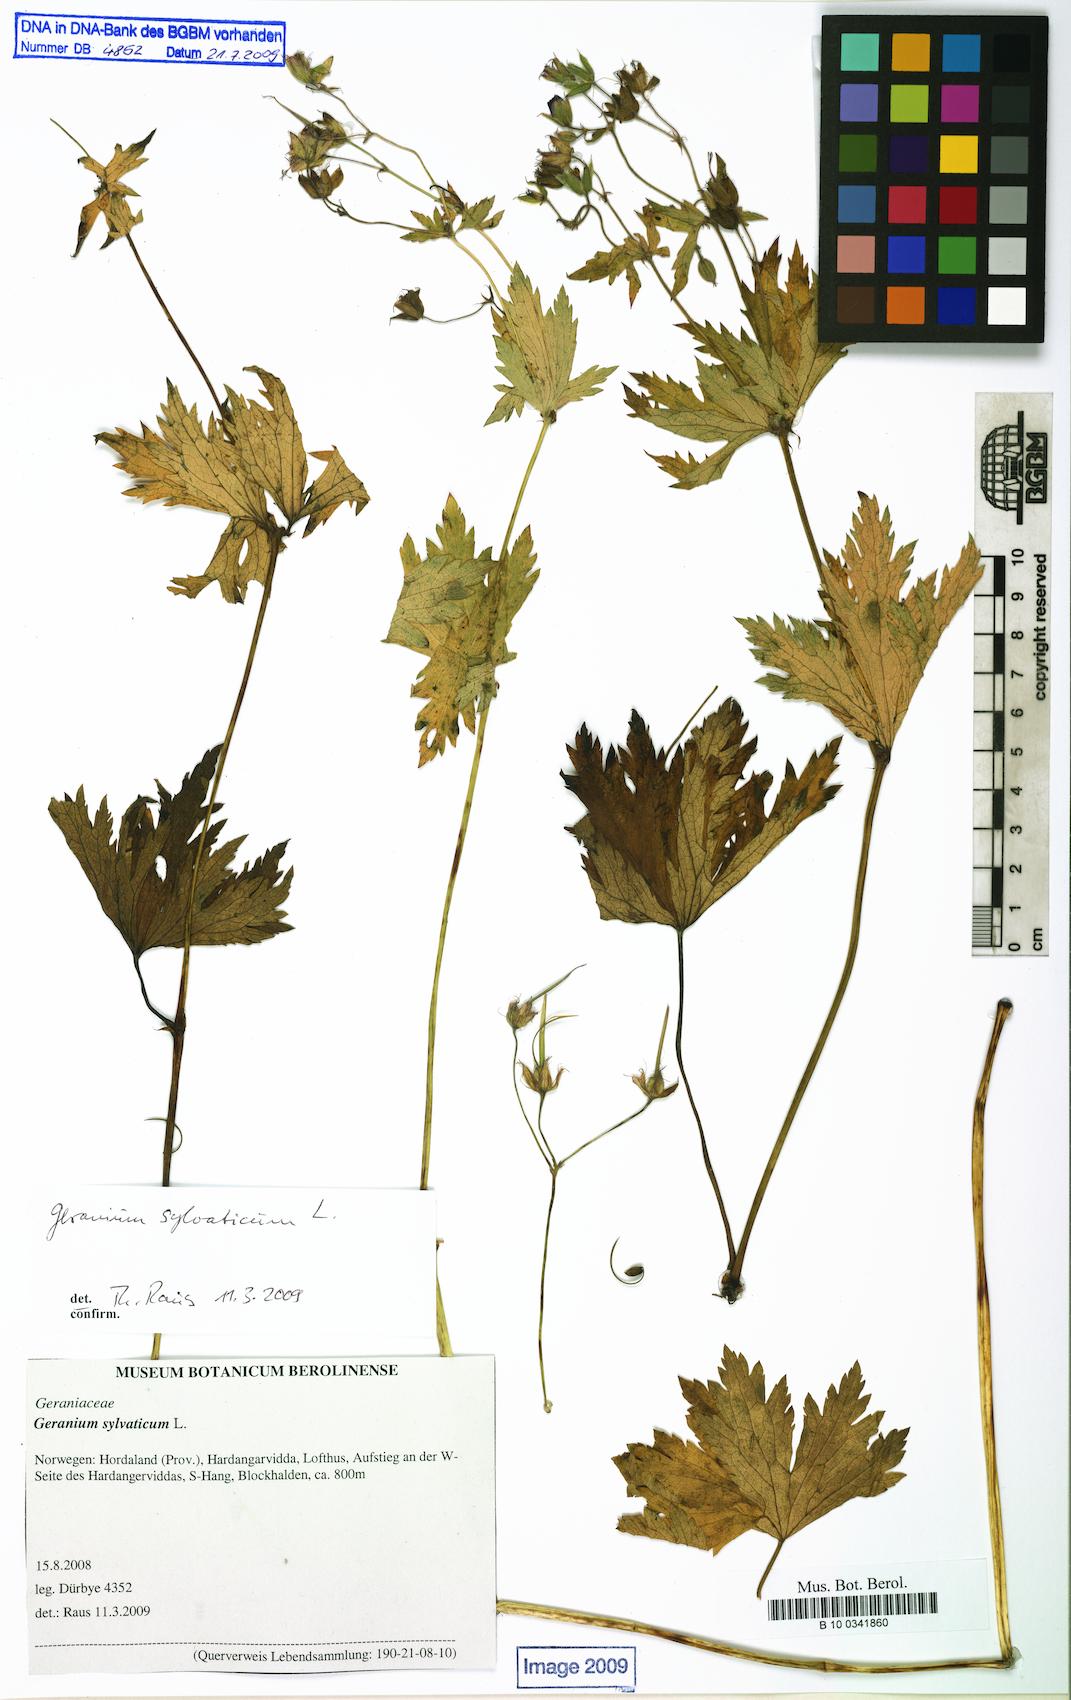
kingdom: Plantae
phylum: Tracheophyta
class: Magnoliopsida
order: Geraniales
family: Geraniaceae
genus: Geranium
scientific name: Geranium sylvaticum
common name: Wood crane's-bill
